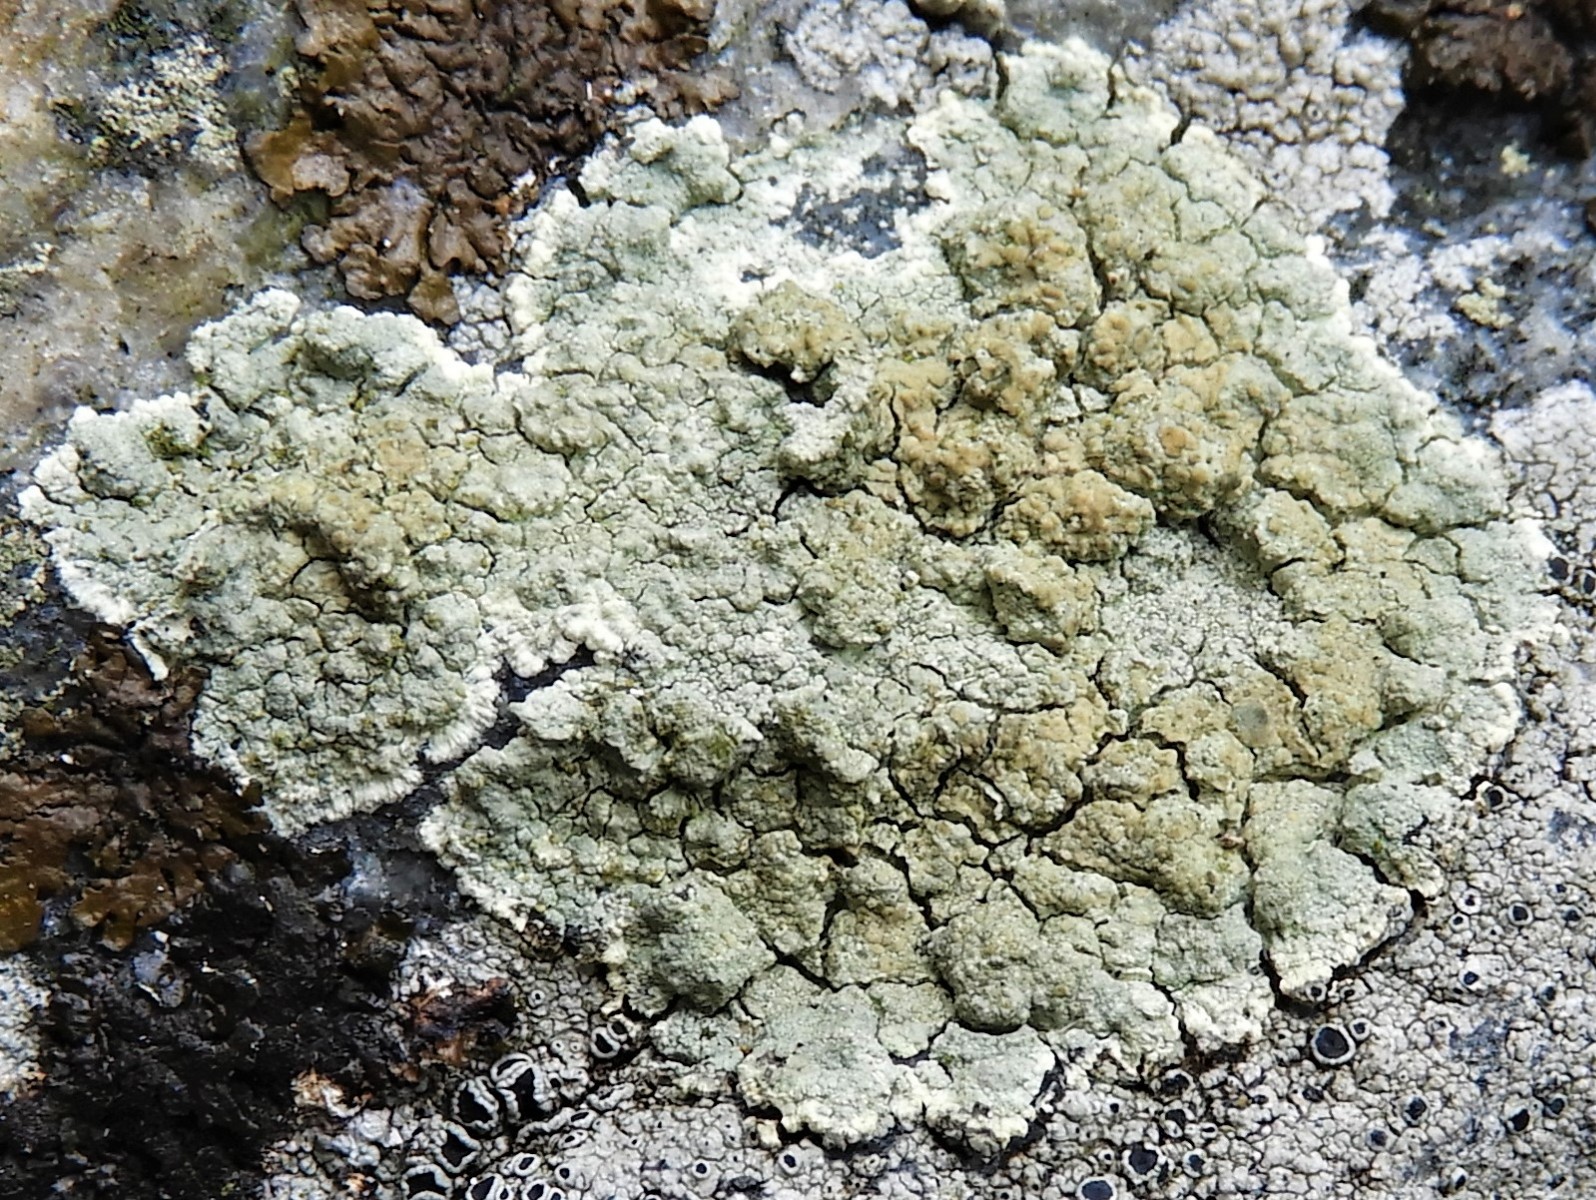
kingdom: Fungi
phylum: Ascomycota
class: Lecanoromycetes
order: Lecanorales
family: Haematommataceae
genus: Haematomma
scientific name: Haematomma ochroleucum
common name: gul trådkantlav
